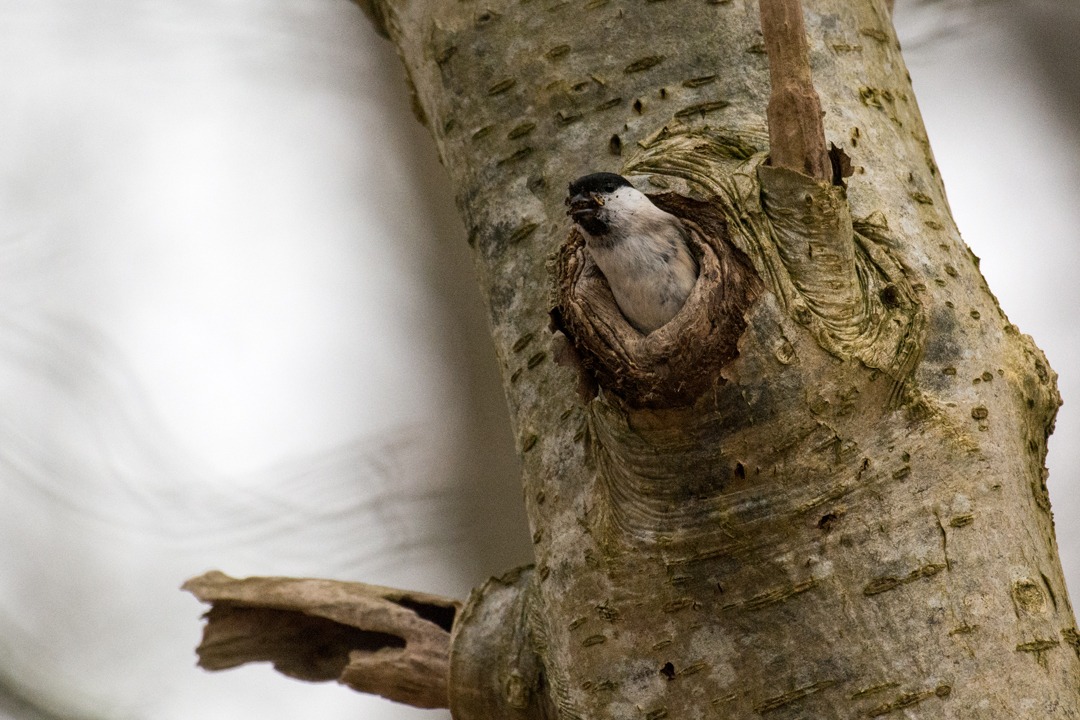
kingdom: Animalia
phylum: Chordata
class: Aves
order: Passeriformes
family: Paridae
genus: Poecile
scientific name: Poecile palustris
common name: Sumpmejse
